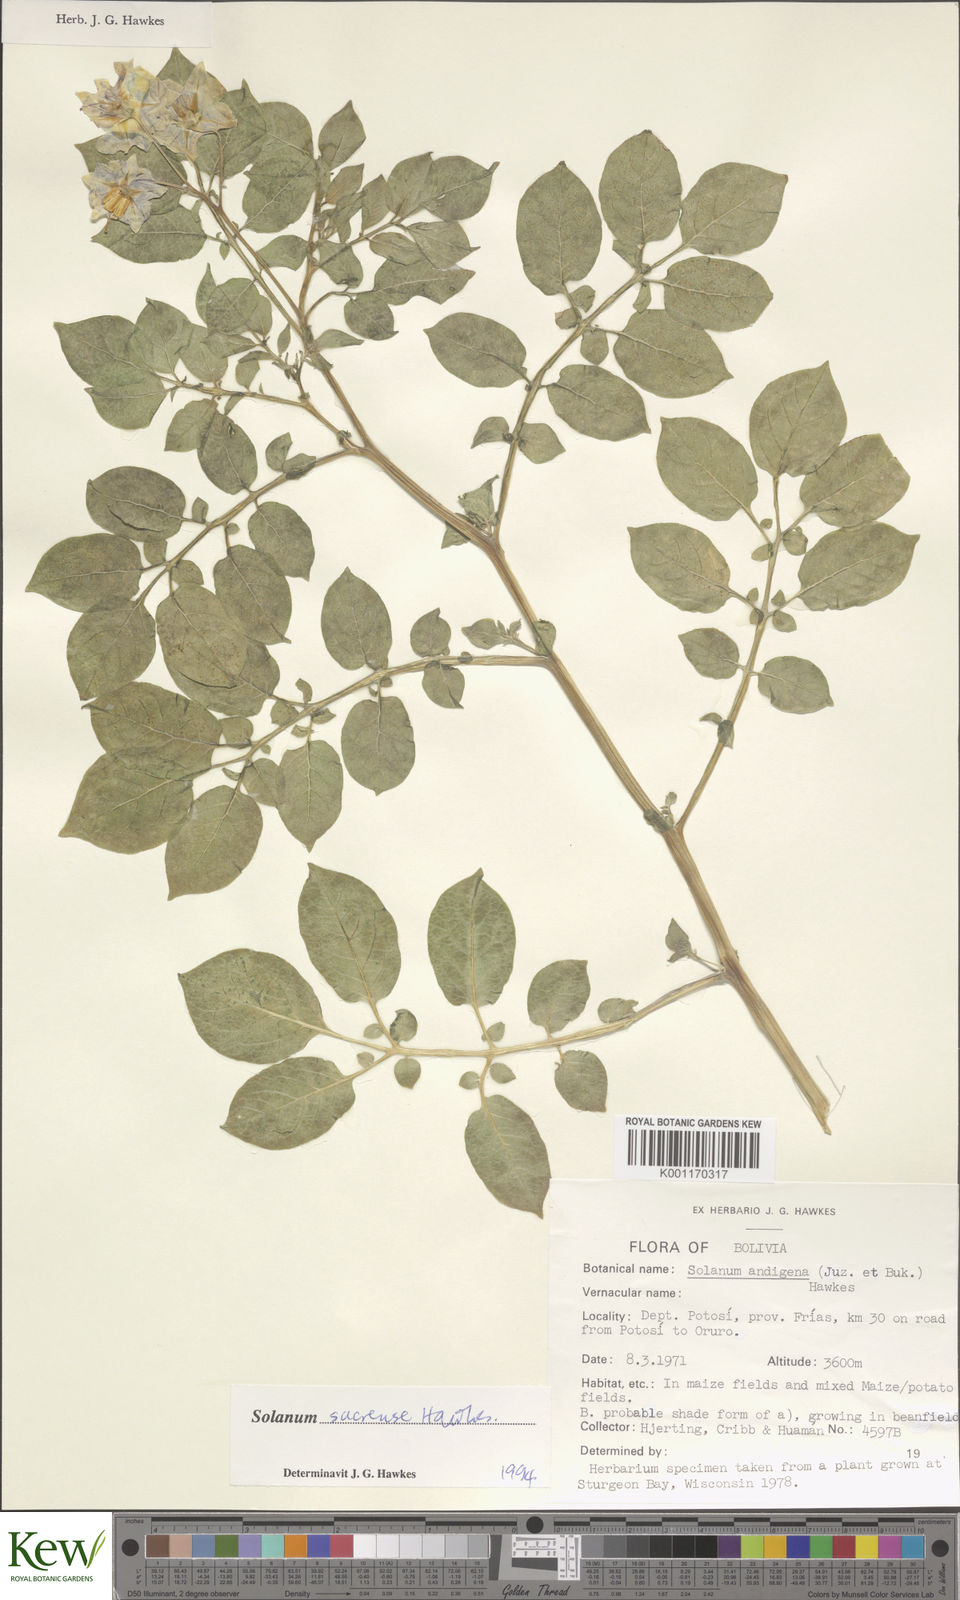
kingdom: Plantae
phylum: Tracheophyta
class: Magnoliopsida
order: Solanales
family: Solanaceae
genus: Solanum
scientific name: Solanum brevicaule
